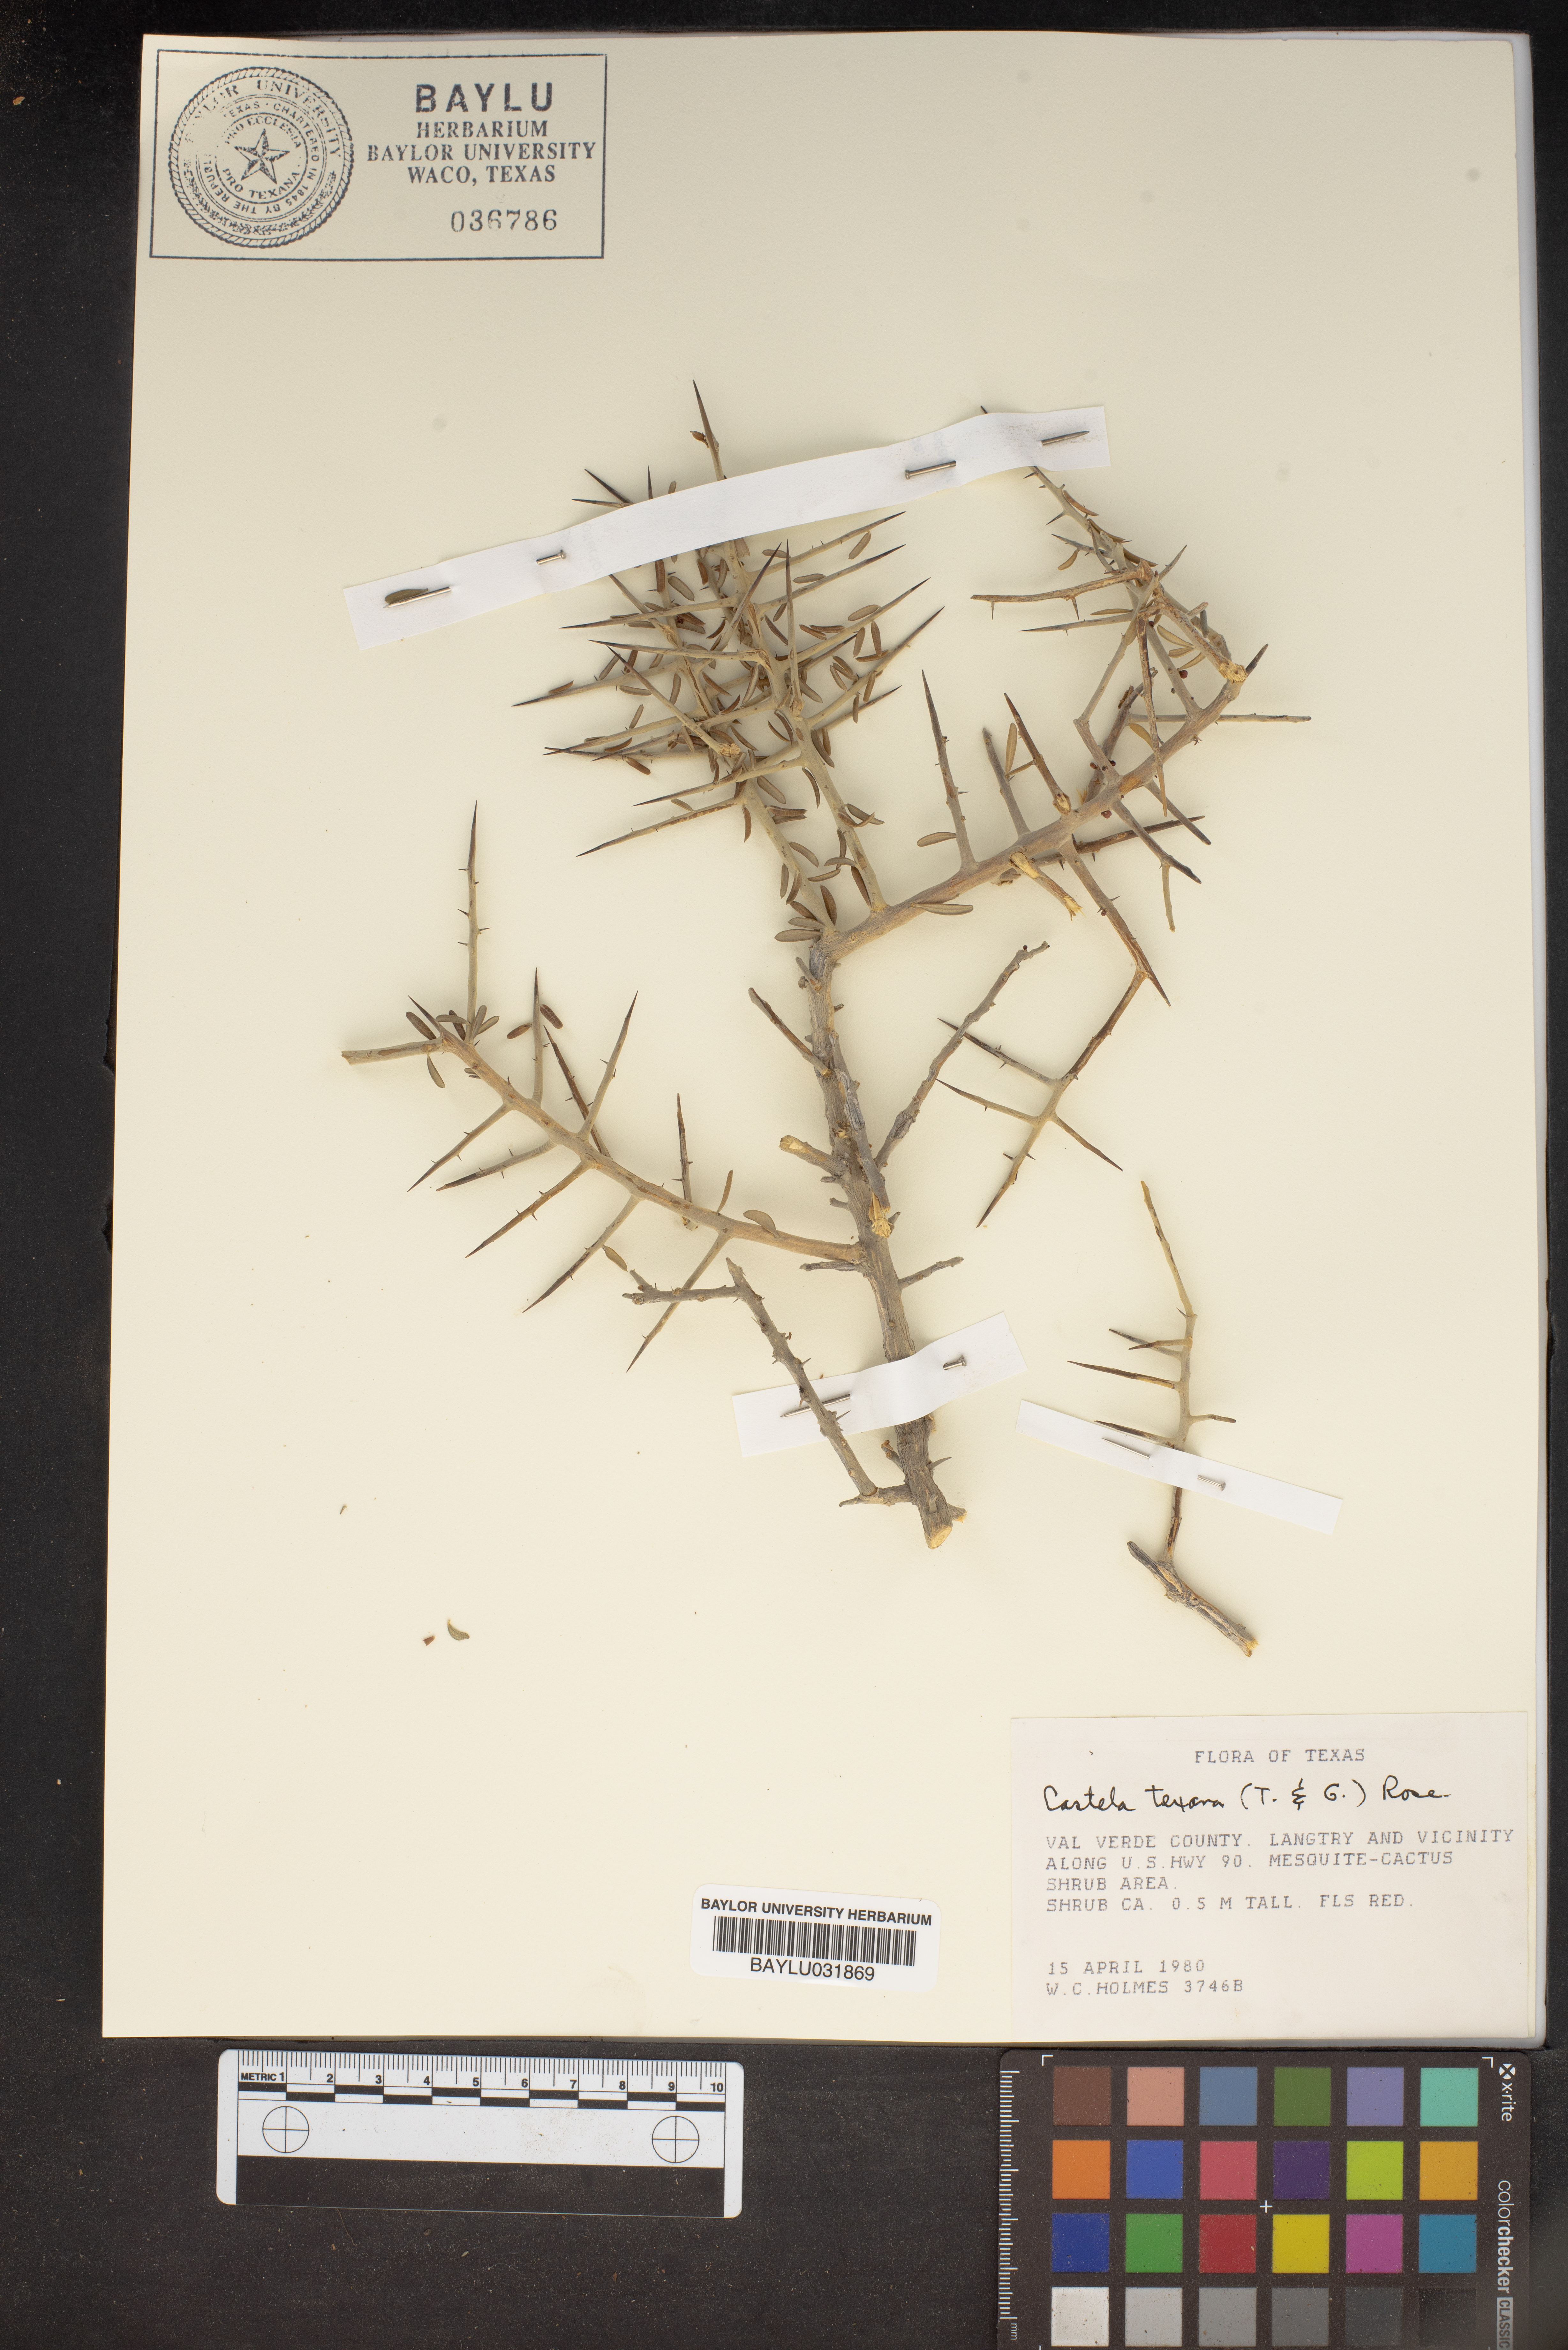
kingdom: Plantae
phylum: Tracheophyta
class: Magnoliopsida
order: Sapindales
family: Simaroubaceae
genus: Castela
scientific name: Castela tortuosa
